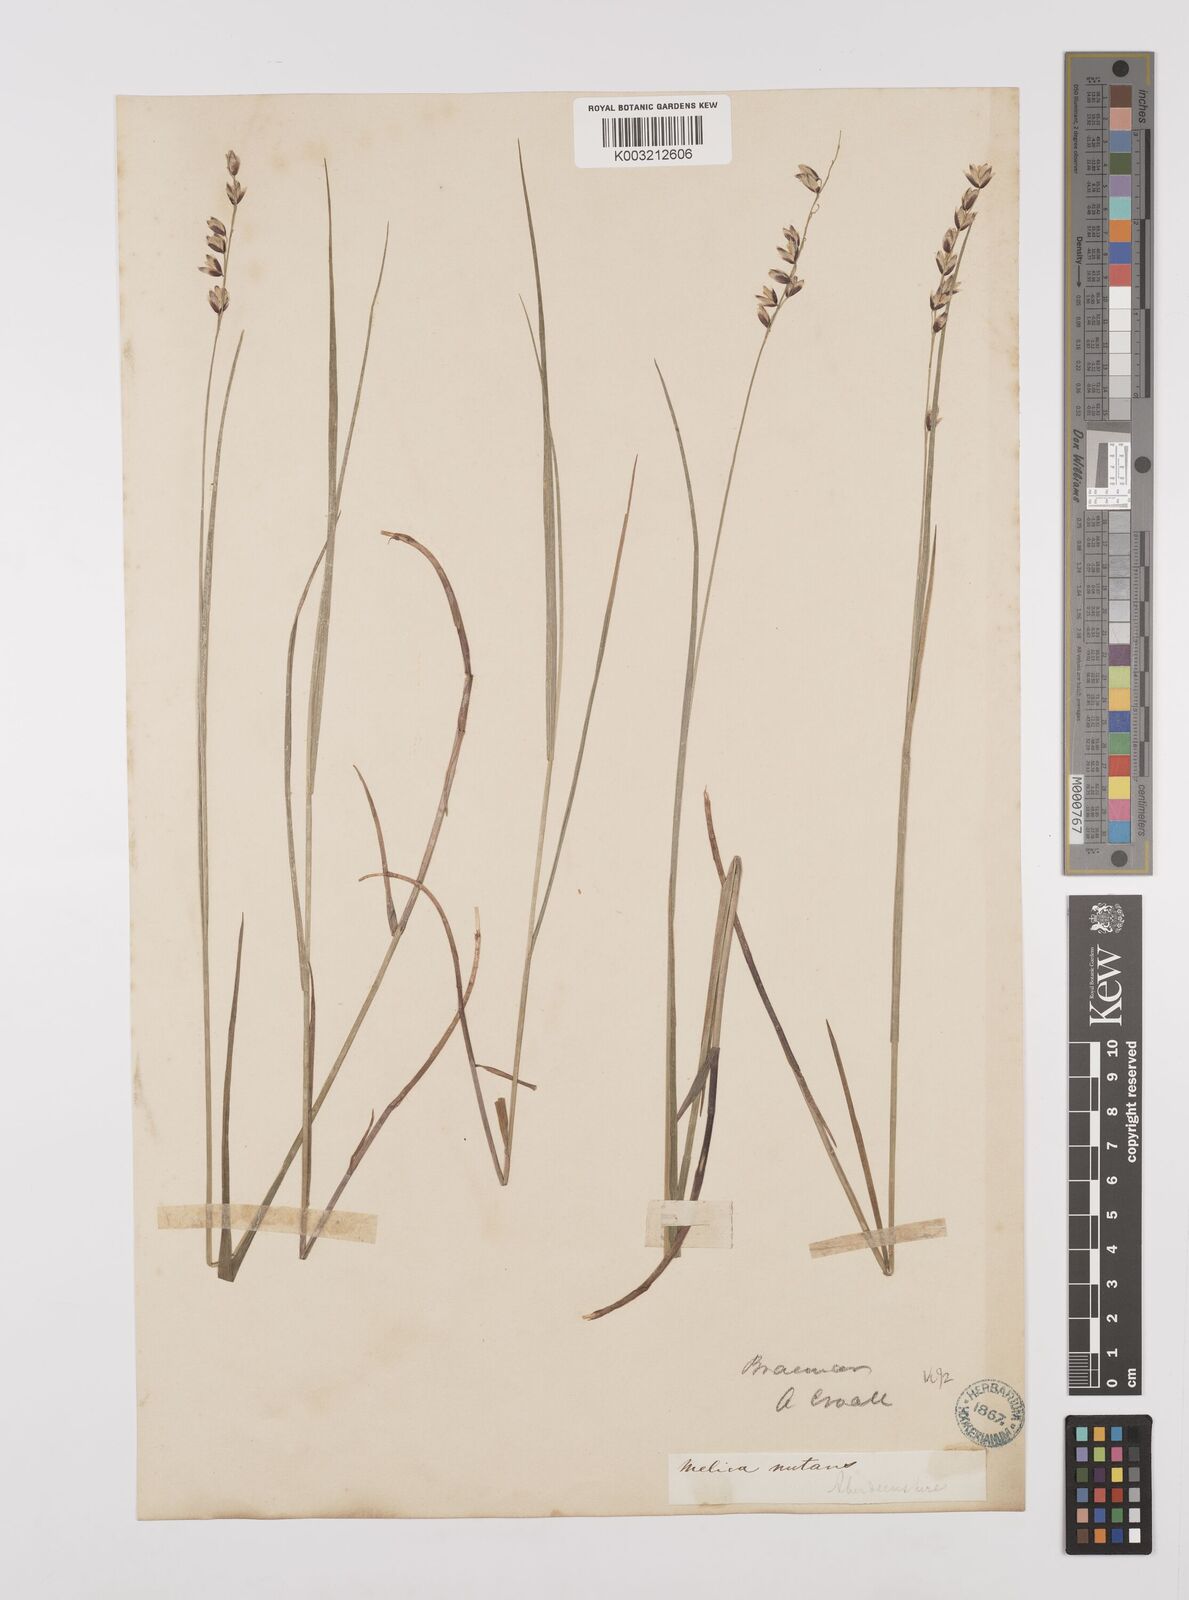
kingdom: Plantae
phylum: Tracheophyta
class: Liliopsida
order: Poales
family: Poaceae
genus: Melica
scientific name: Melica
